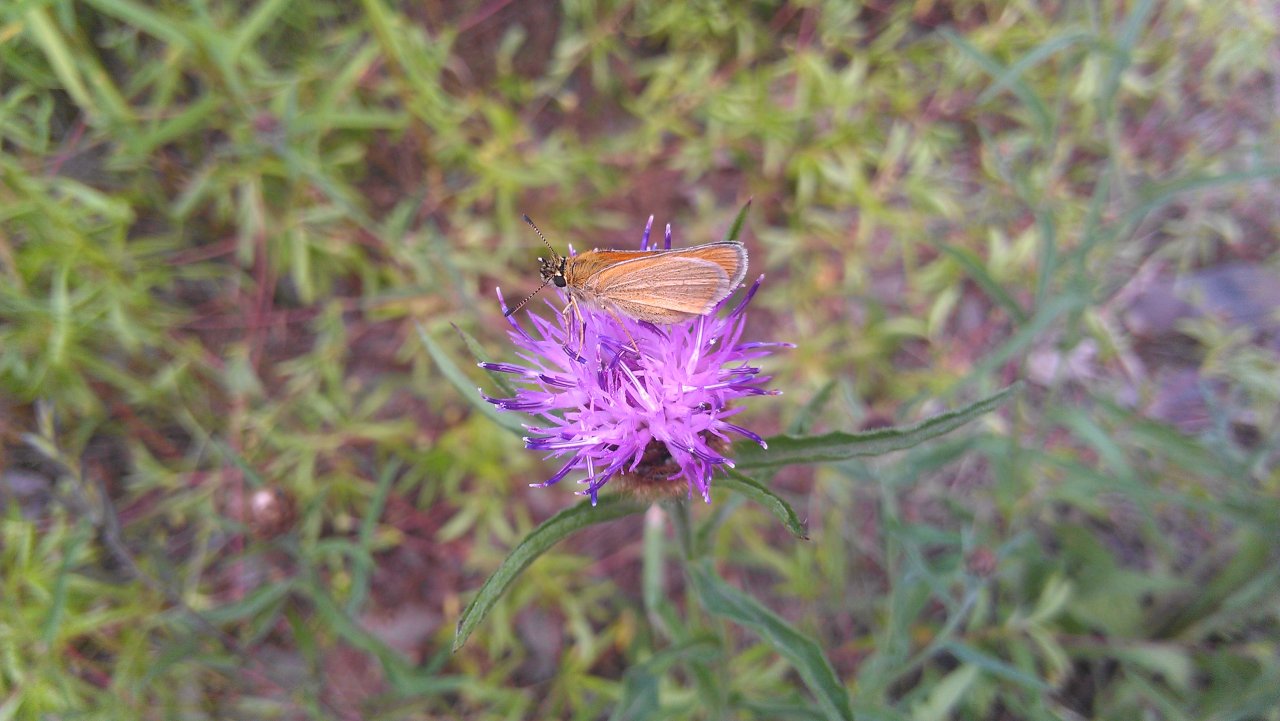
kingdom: Animalia
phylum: Arthropoda
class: Insecta
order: Lepidoptera
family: Hesperiidae
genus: Thymelicus
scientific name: Thymelicus lineola
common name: European Skipper
